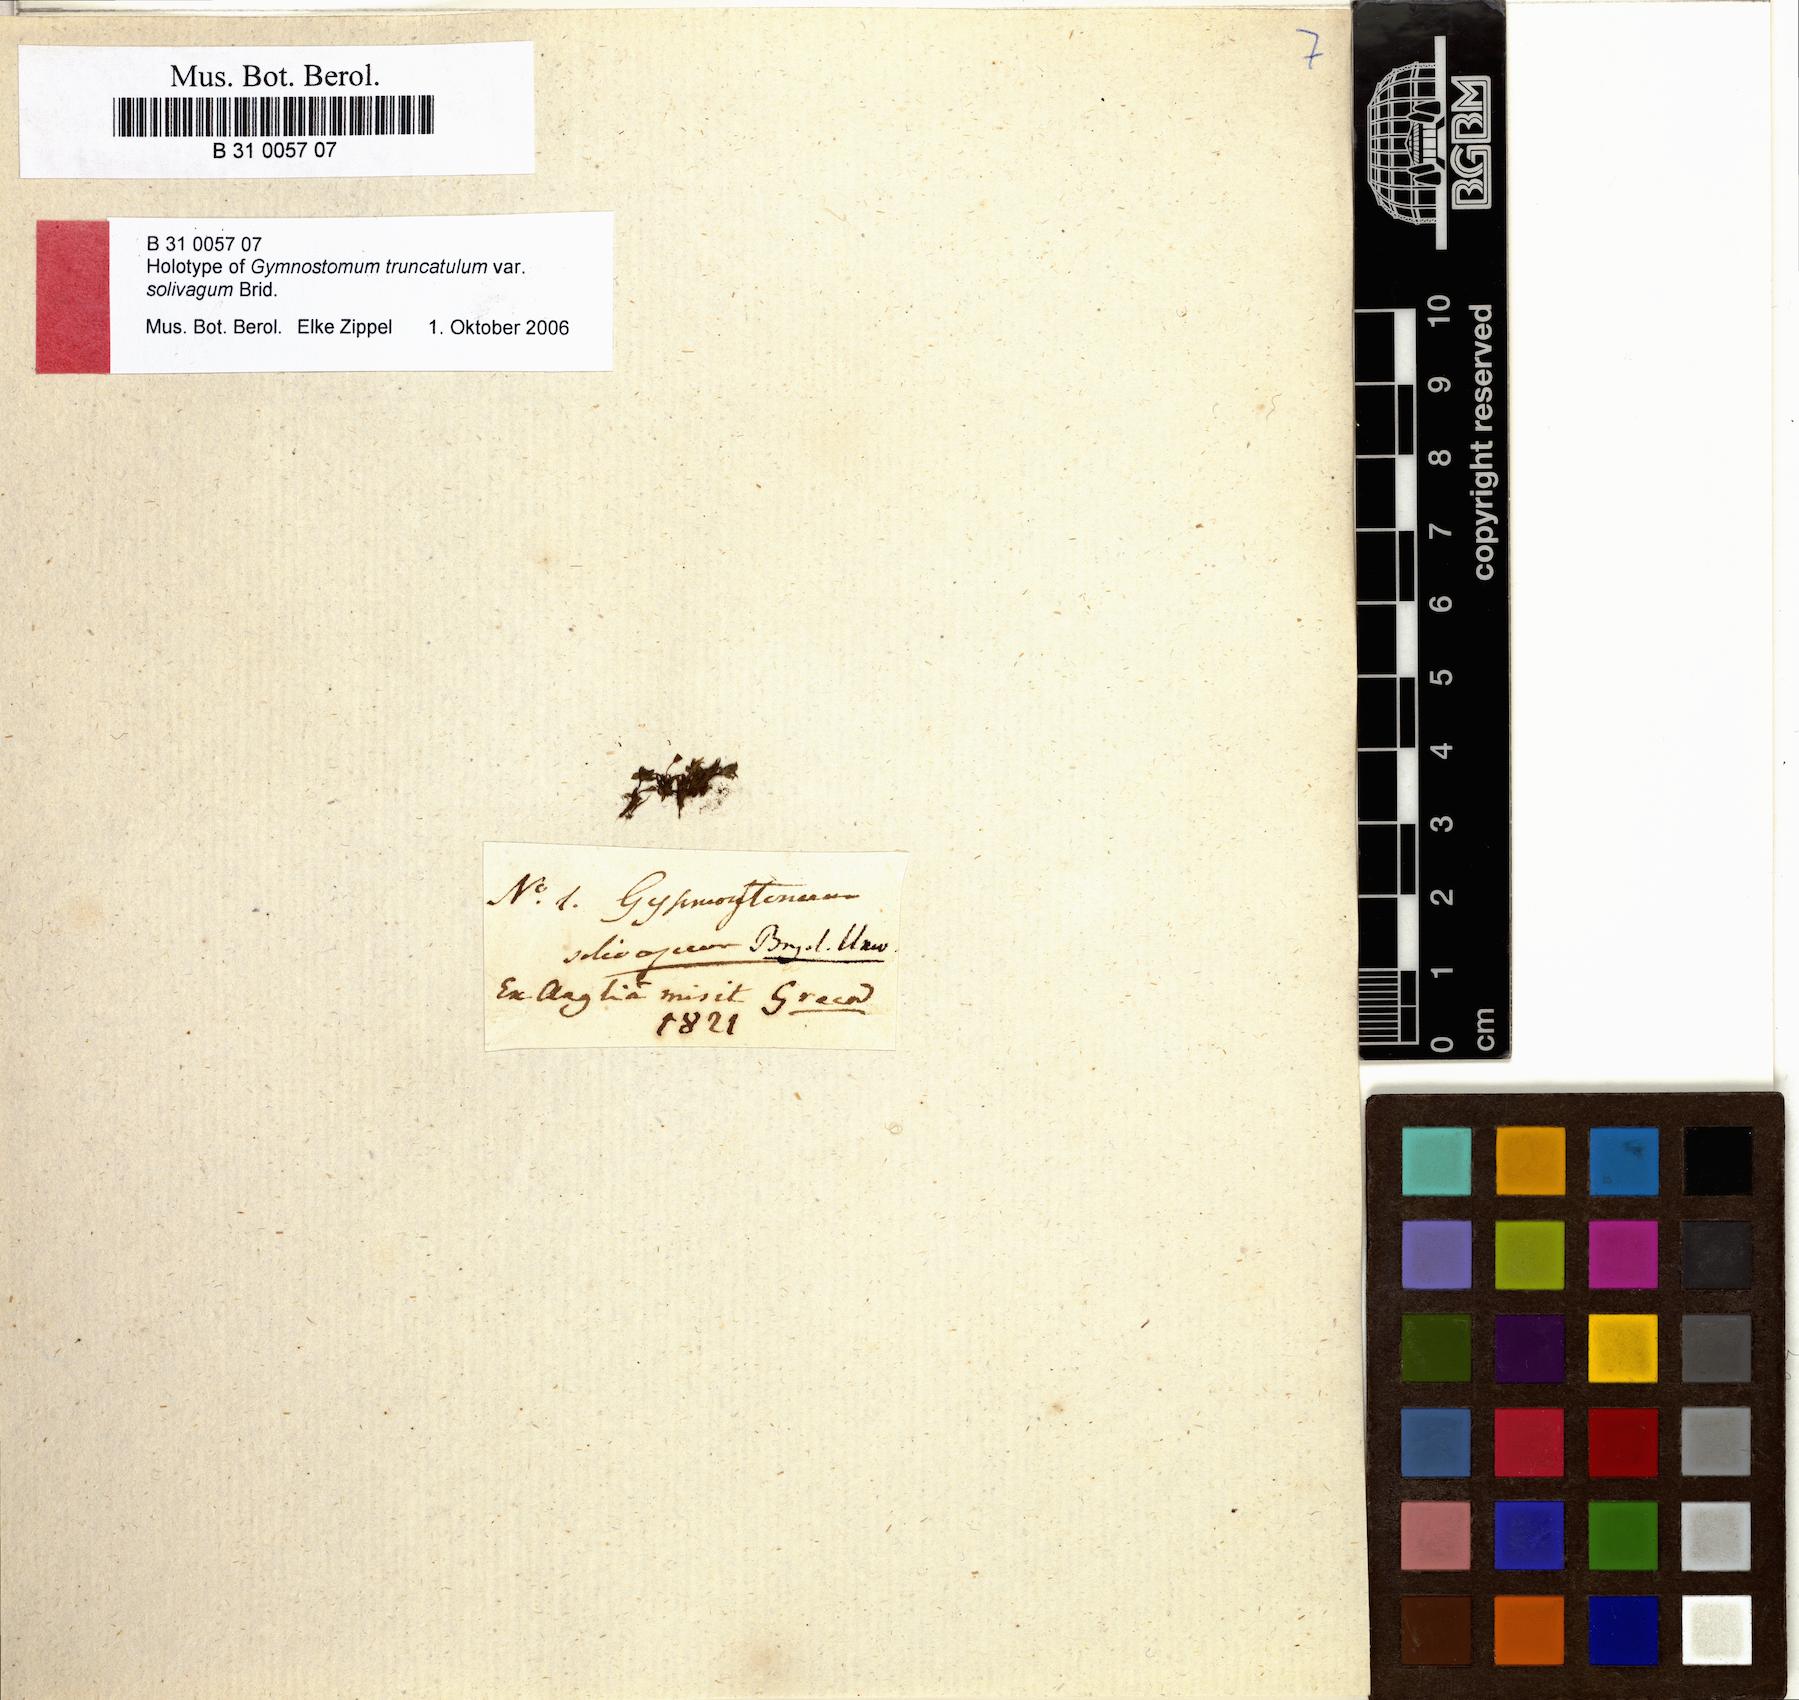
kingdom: Plantae
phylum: Bryophyta
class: Bryopsida
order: Pottiales
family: Pottiaceae
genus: Tortula
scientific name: Tortula wilsonii
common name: Wilson's pottia
